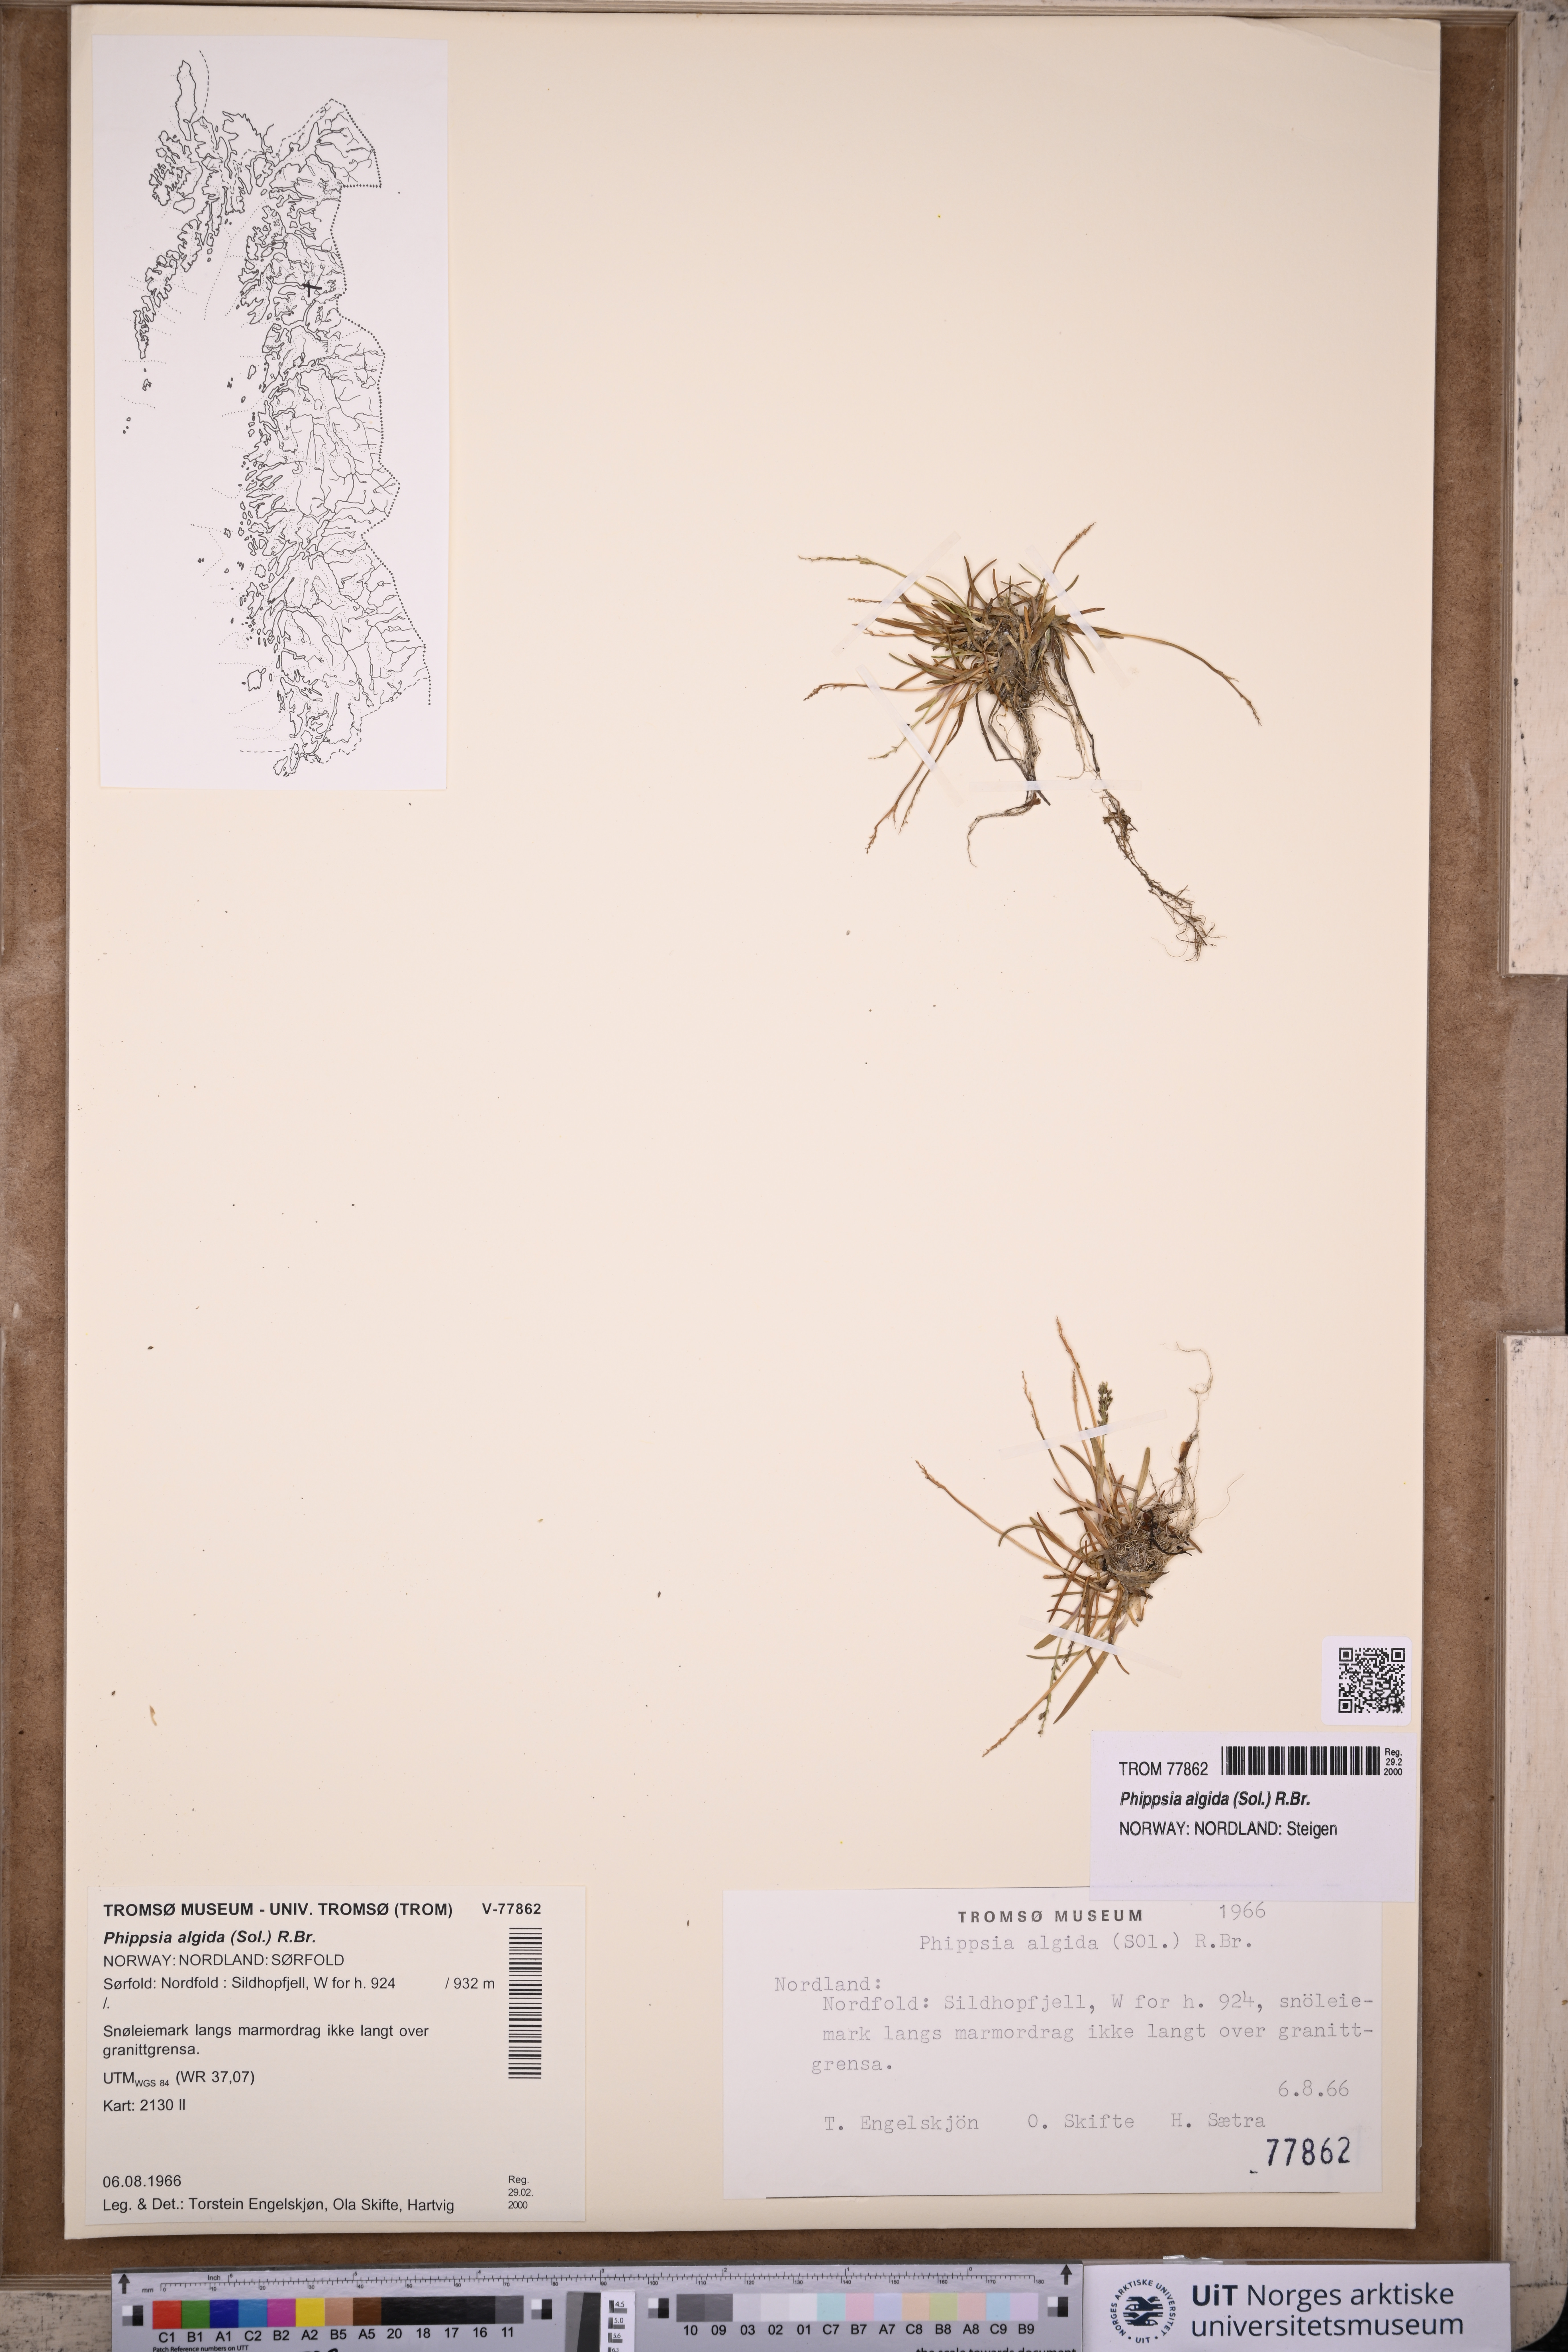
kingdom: Plantae
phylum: Tracheophyta
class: Liliopsida
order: Poales
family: Poaceae
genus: Phippsia
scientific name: Phippsia algida
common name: Ice grass
